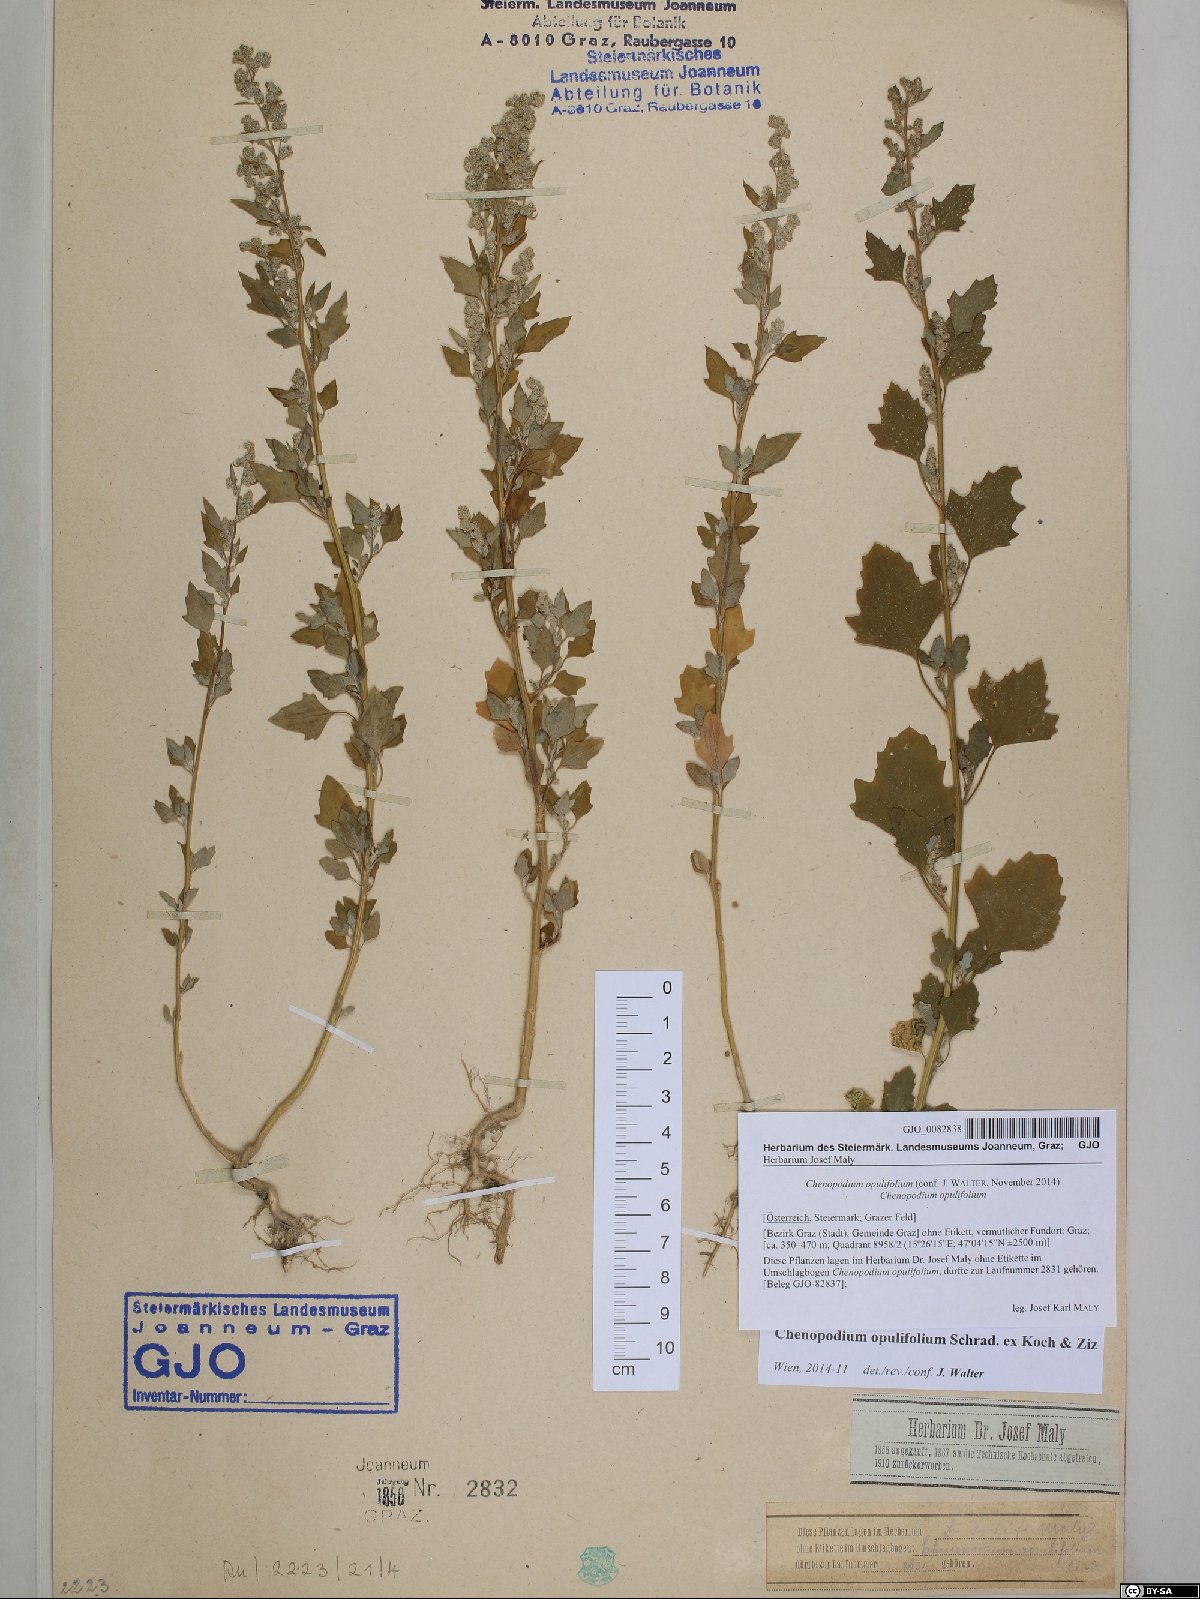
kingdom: Plantae
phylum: Tracheophyta
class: Magnoliopsida
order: Caryophyllales
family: Amaranthaceae
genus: Chenopodium
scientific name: Chenopodium opulifolium
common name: Grey goosefoot
